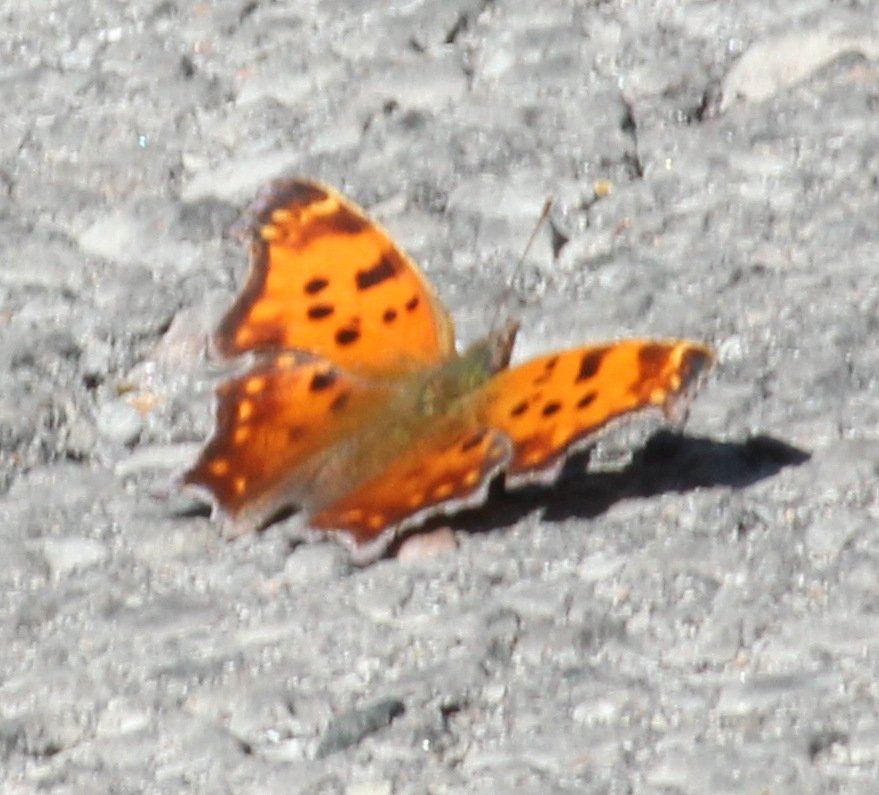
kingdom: Animalia
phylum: Arthropoda
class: Insecta
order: Lepidoptera
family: Nymphalidae
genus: Polygonia
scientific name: Polygonia comma
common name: Eastern Comma
